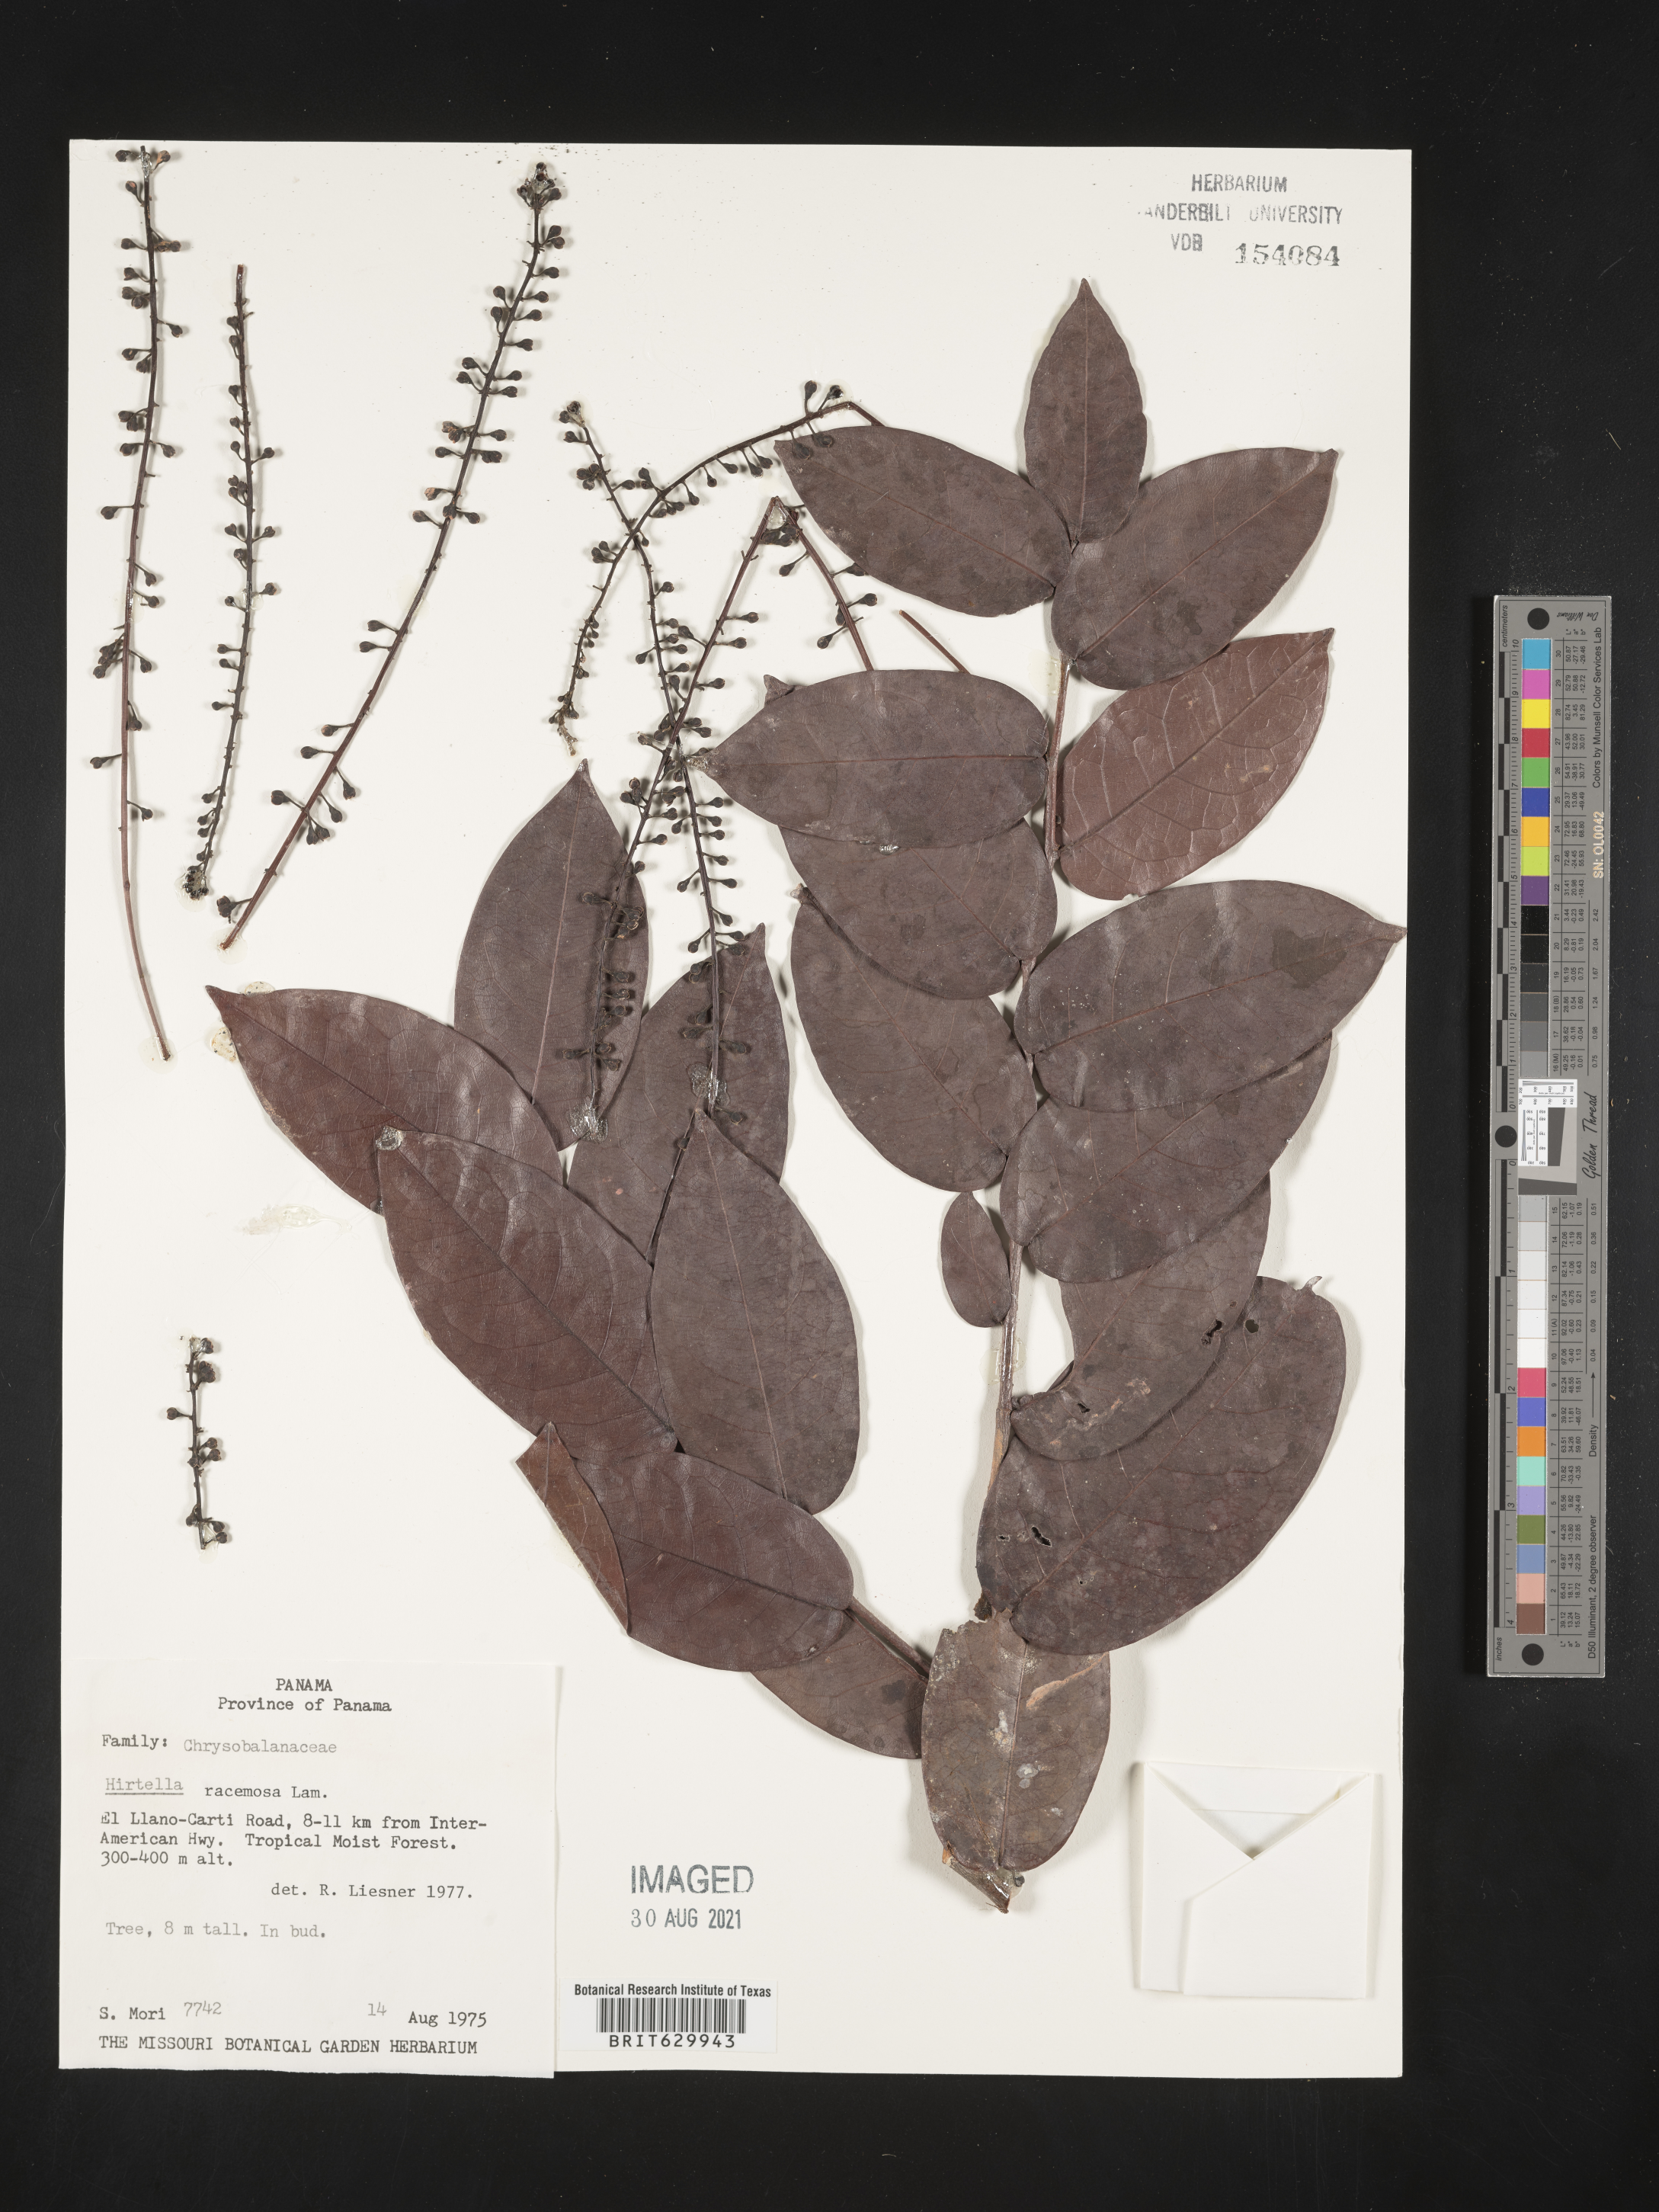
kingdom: Plantae
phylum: Tracheophyta
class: Magnoliopsida
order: Malpighiales
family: Chrysobalanaceae
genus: Hirtella
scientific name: Hirtella triandra
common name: Hairy plum
